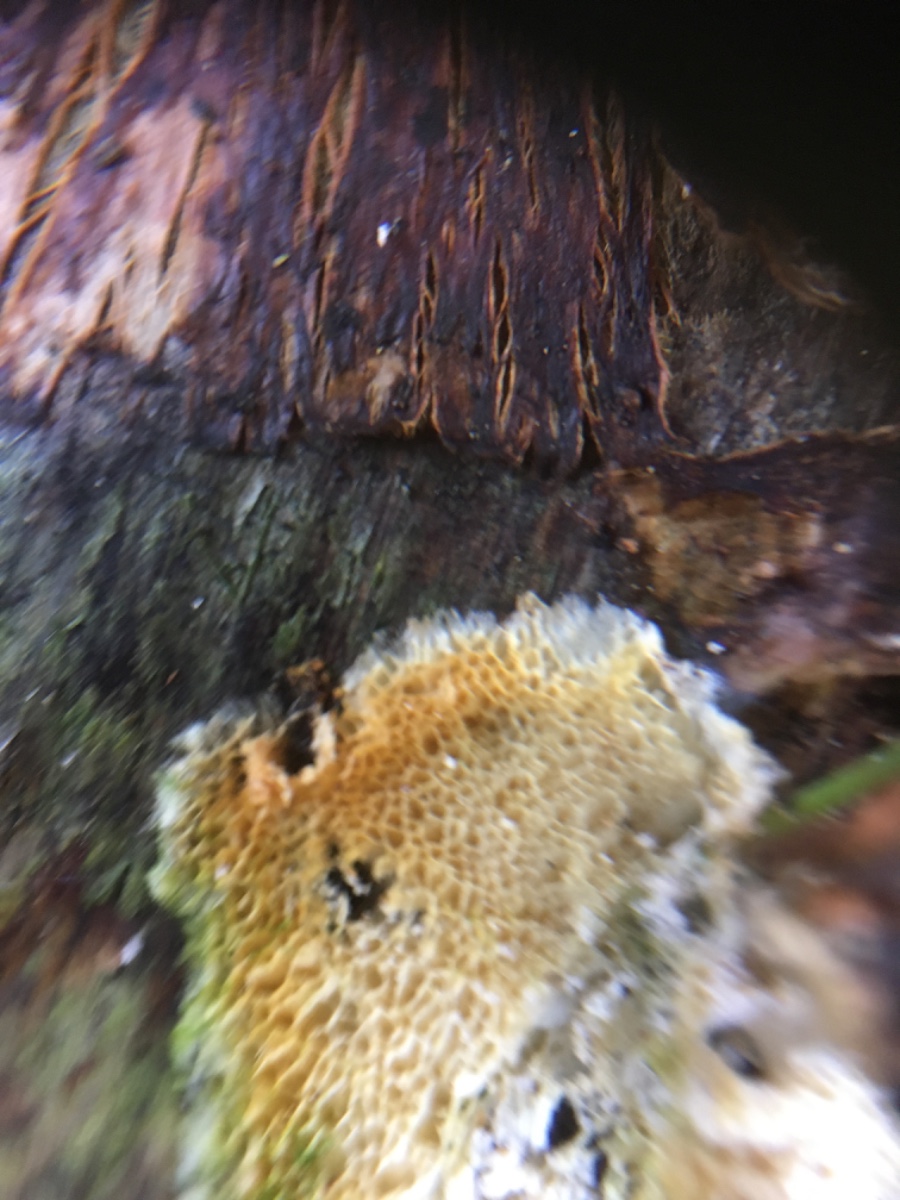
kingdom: Fungi
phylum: Basidiomycota
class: Agaricomycetes
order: Polyporales
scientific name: Polyporales
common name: poresvampordenen
